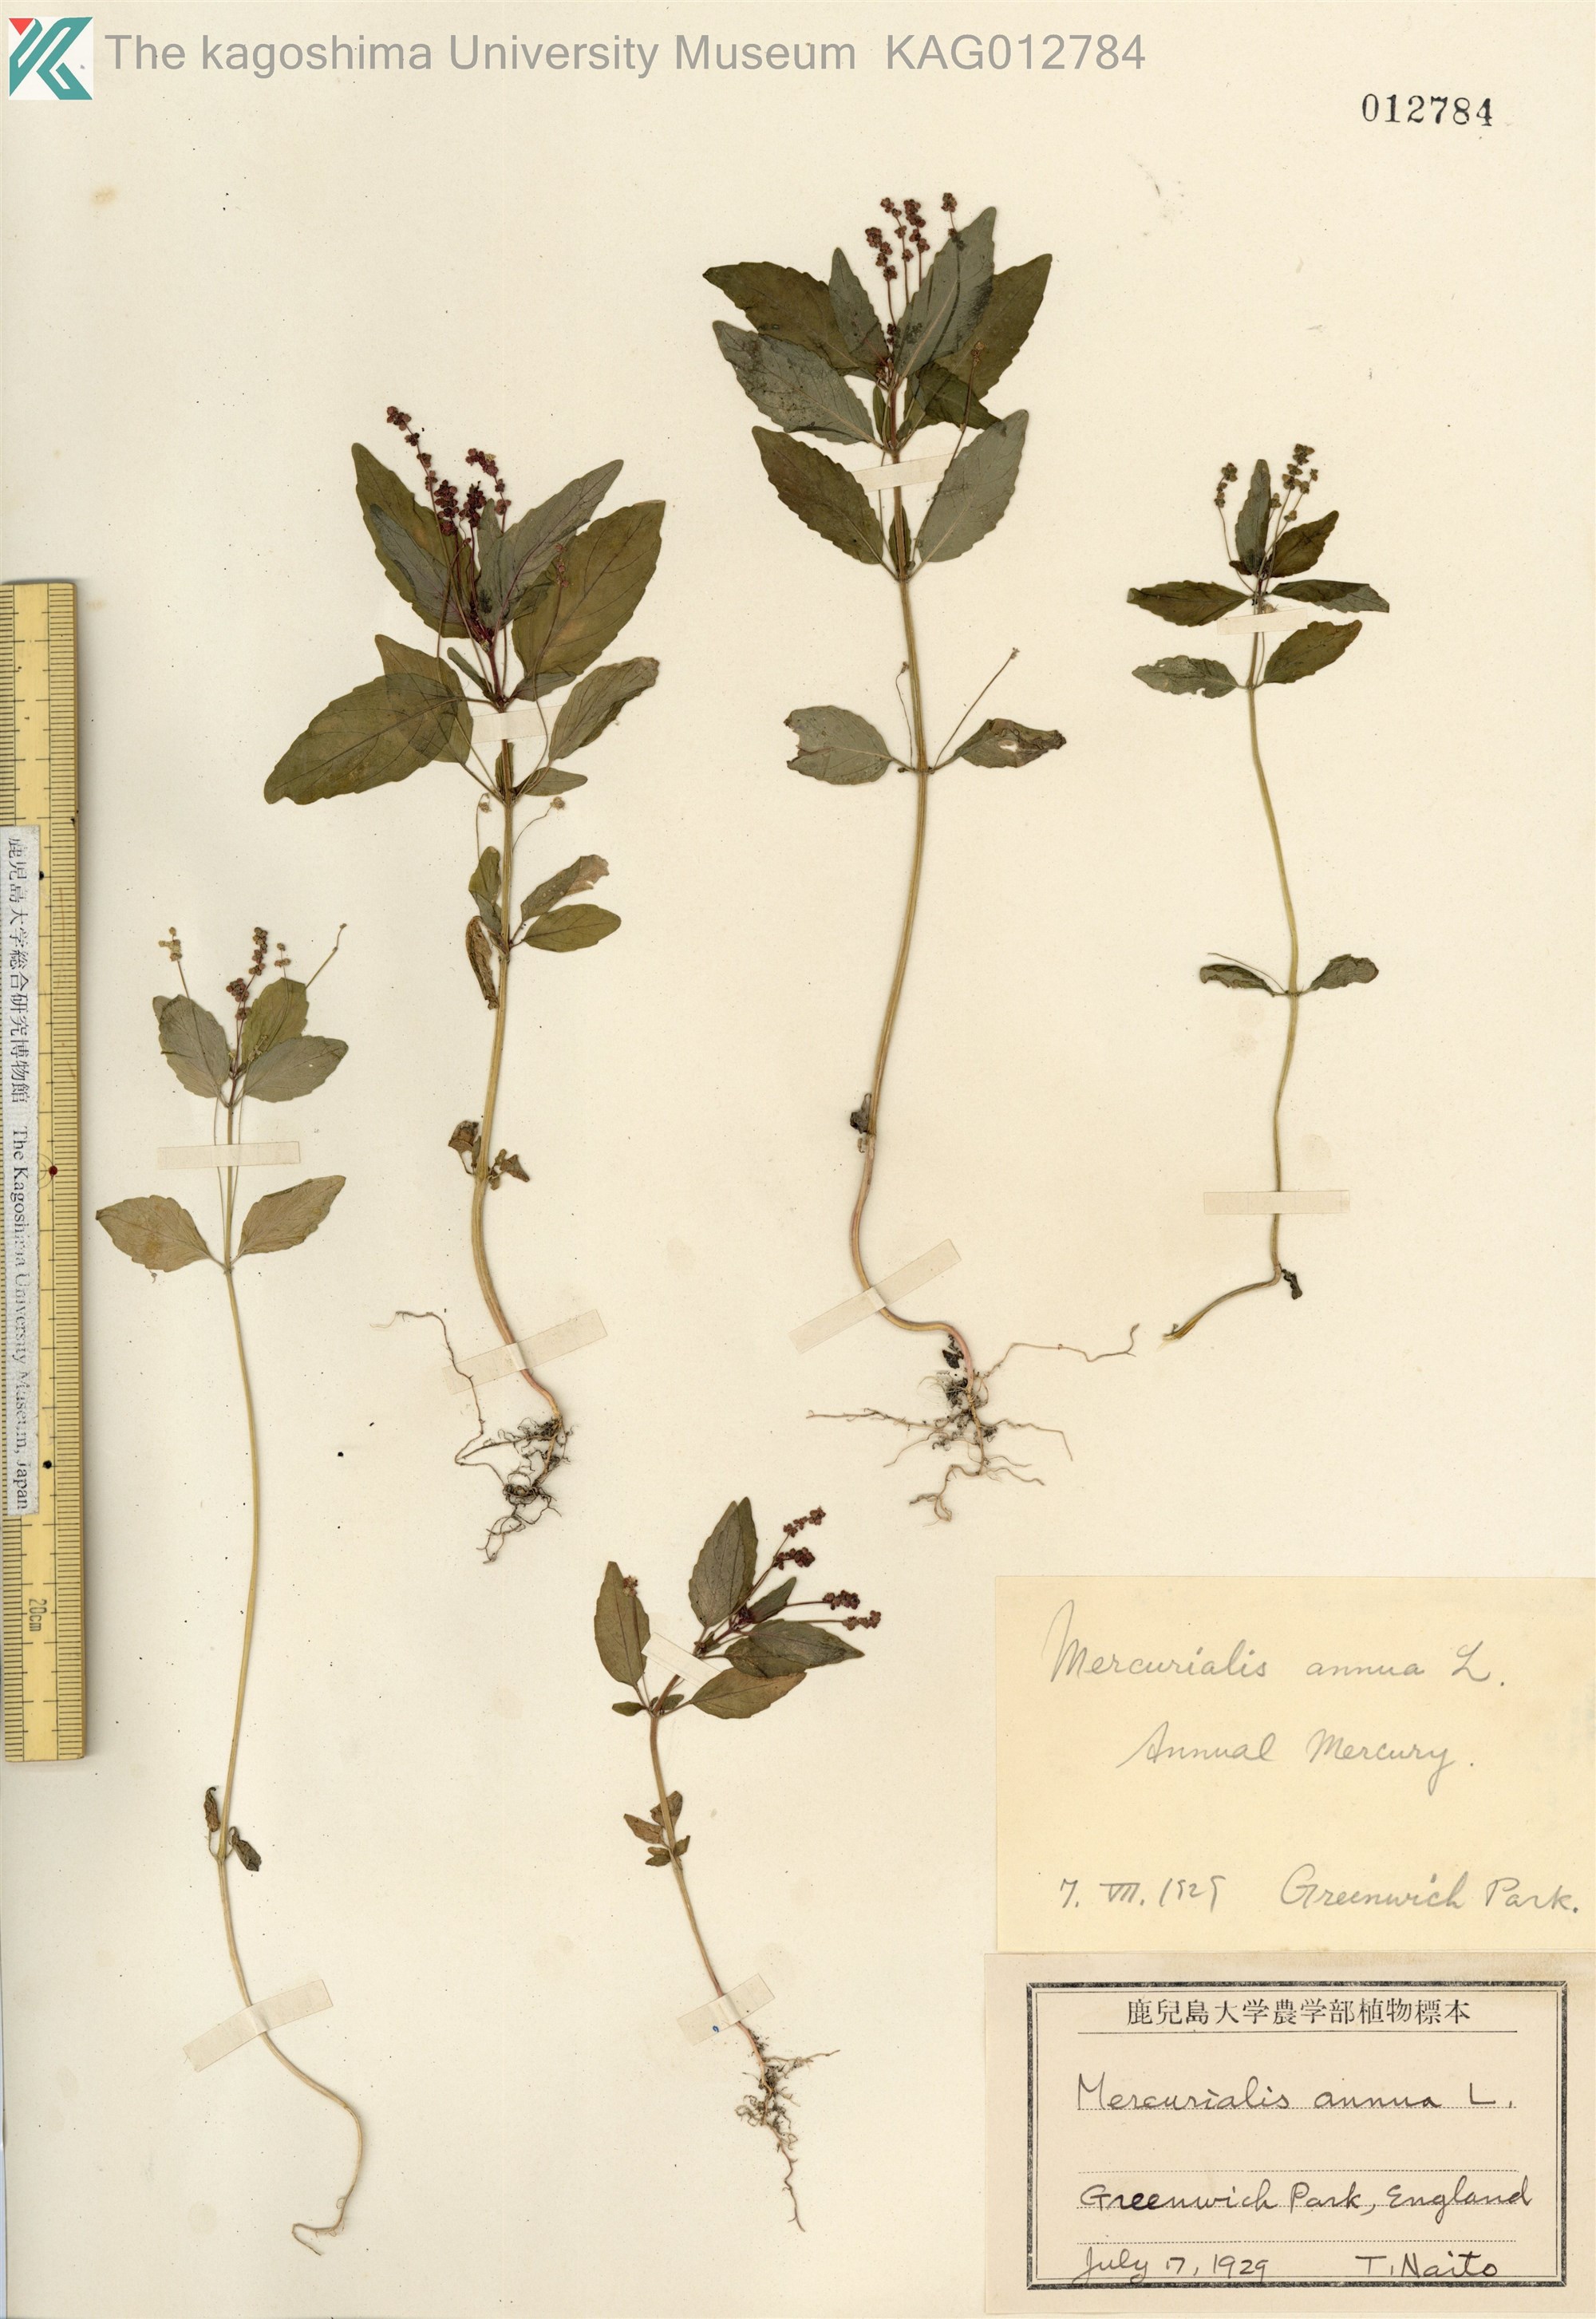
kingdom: Plantae
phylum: Tracheophyta
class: Magnoliopsida
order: Malpighiales
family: Euphorbiaceae
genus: Mercurialis
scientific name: Mercurialis annua
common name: Annual mercury
